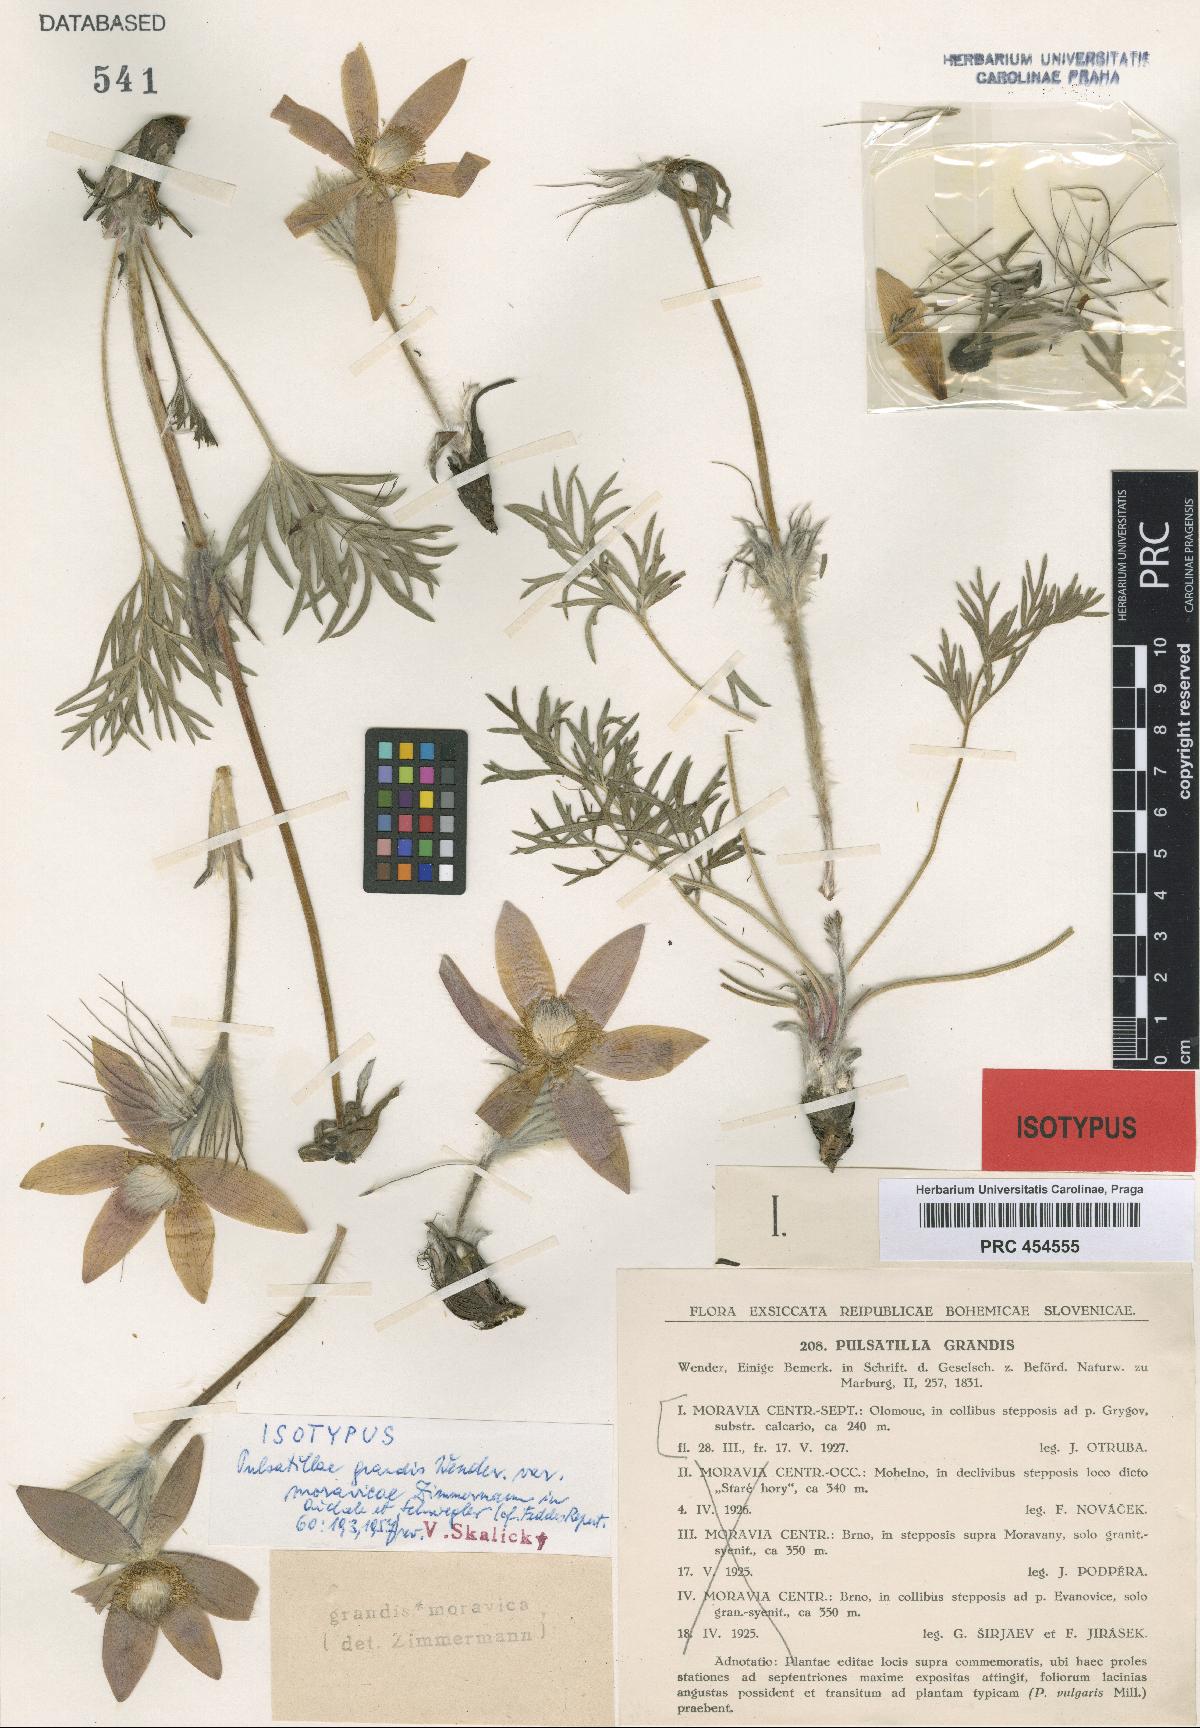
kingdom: Plantae
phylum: Tracheophyta
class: Magnoliopsida
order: Ranunculales
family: Ranunculaceae
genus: Pulsatilla
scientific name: Pulsatilla grandis
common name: Greater pasque flower
